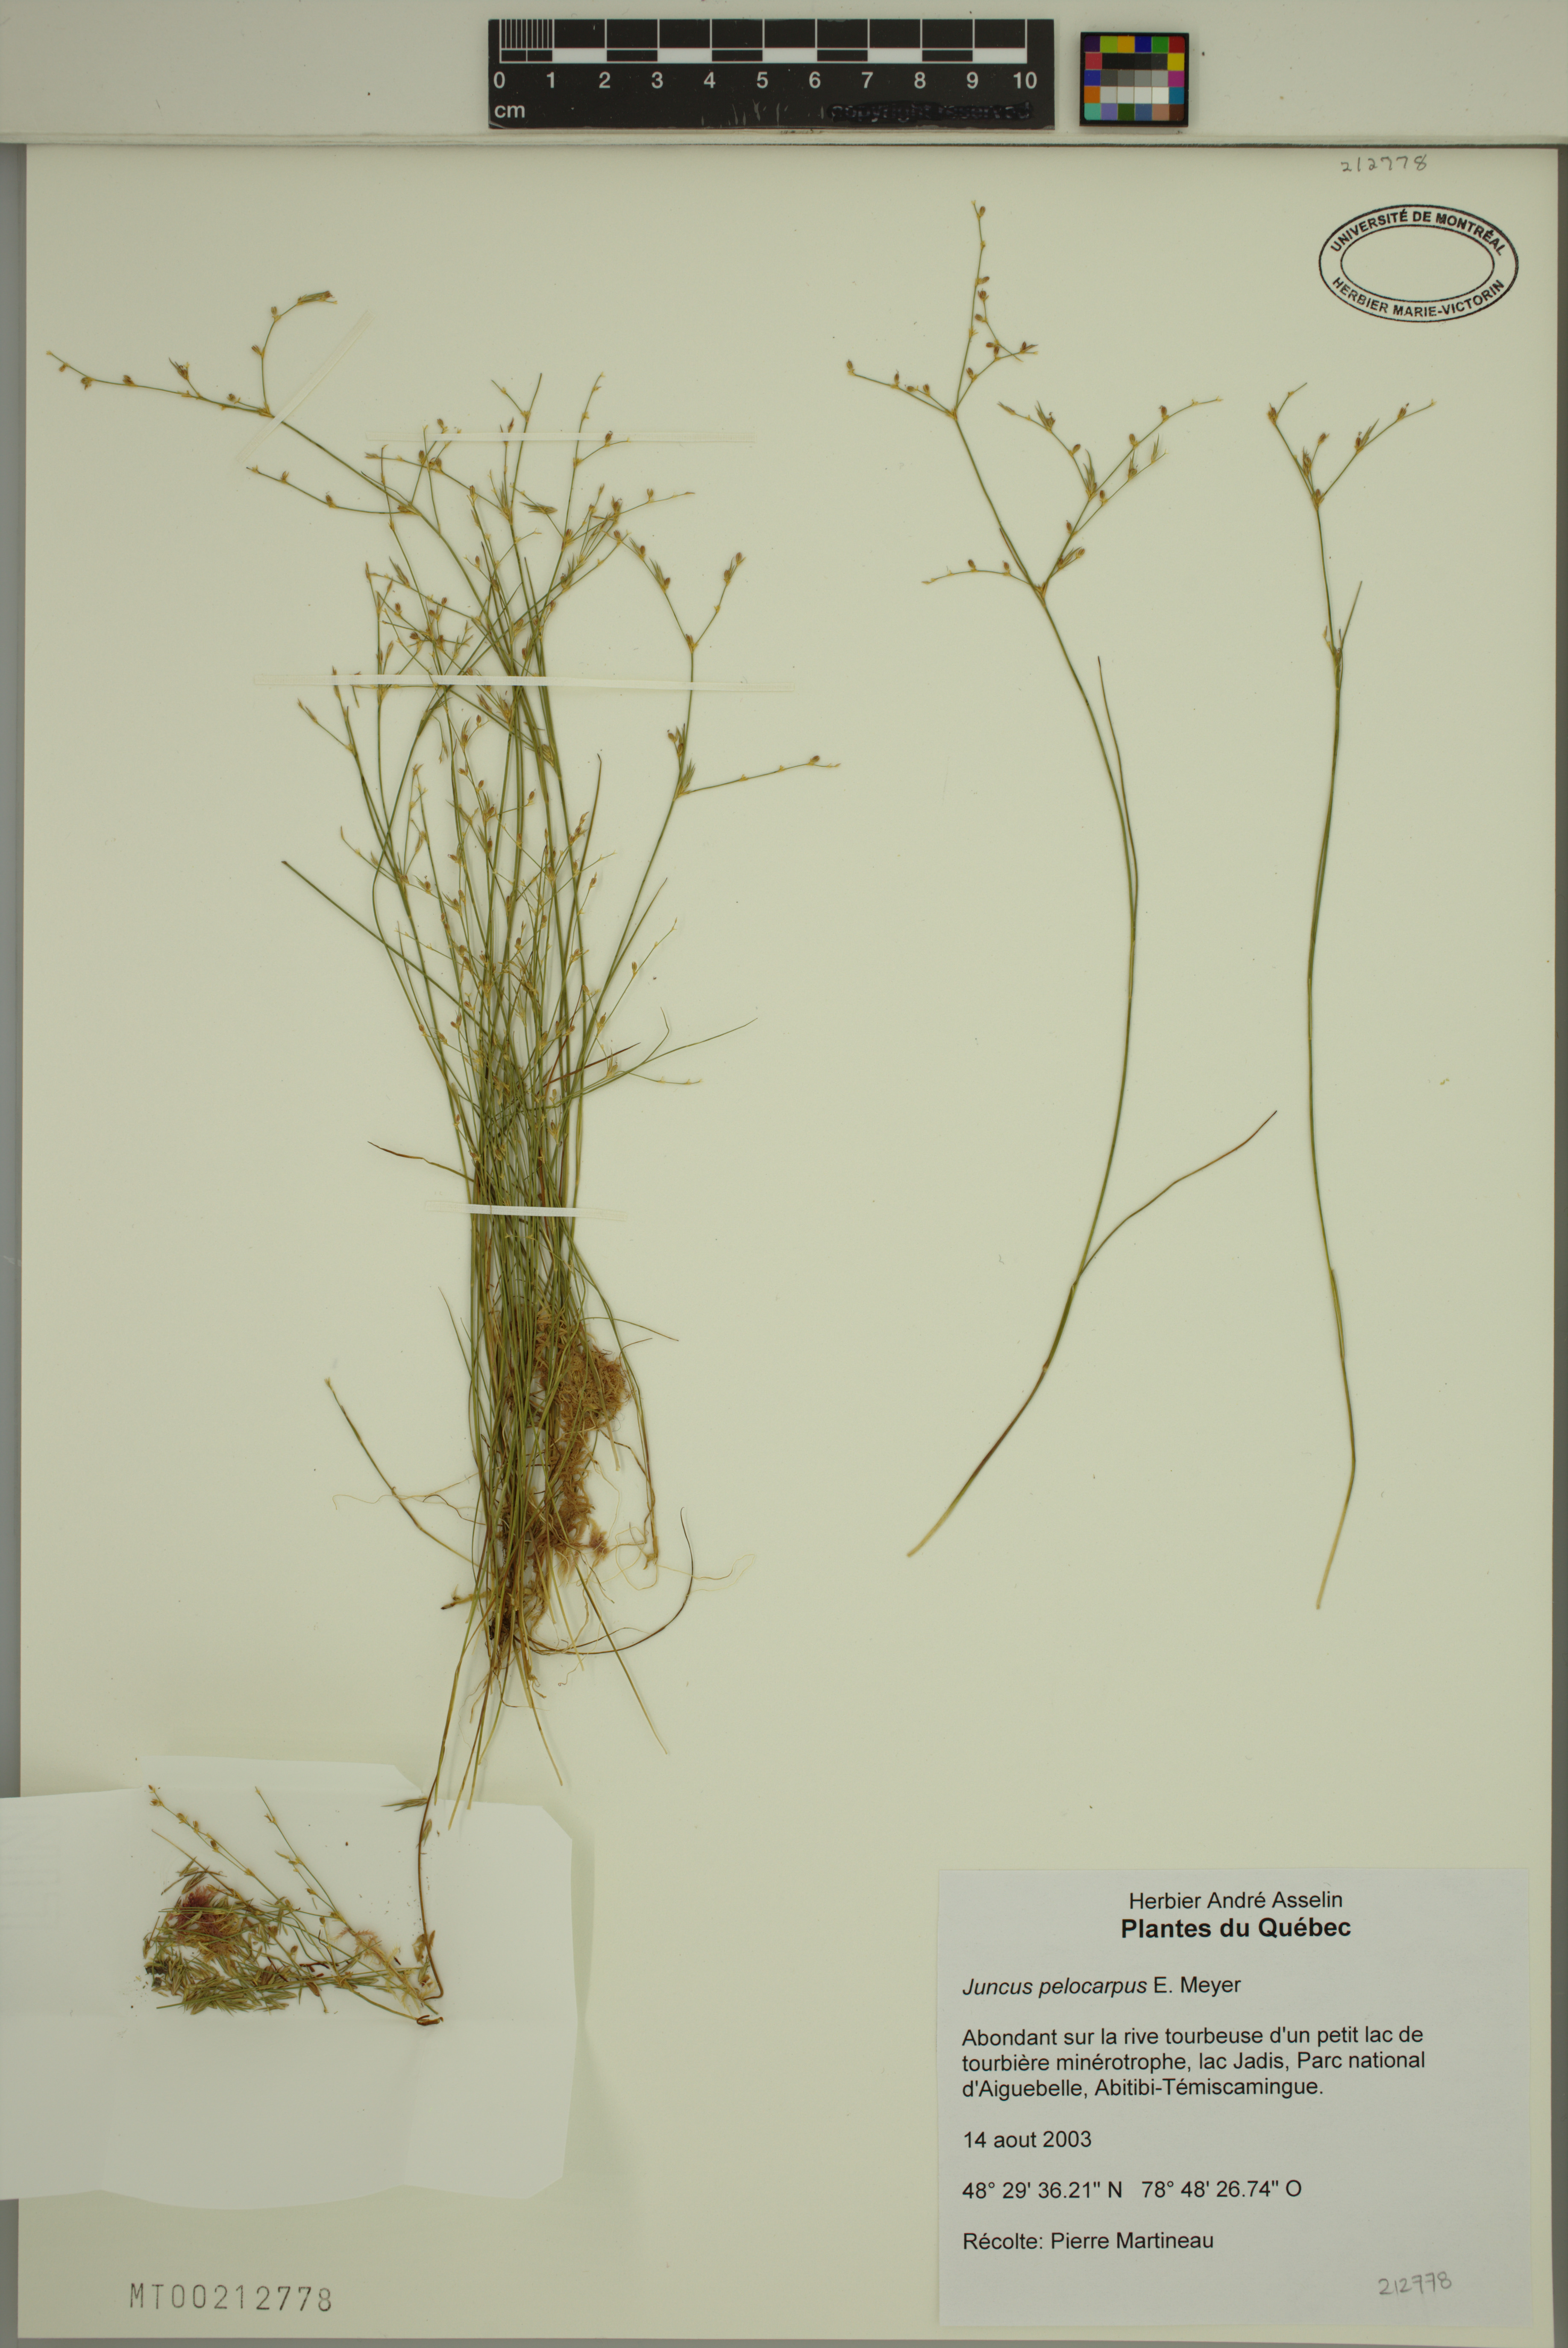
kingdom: Plantae
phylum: Tracheophyta
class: Liliopsida
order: Poales
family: Juncaceae
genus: Juncus
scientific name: Juncus pelocarpus
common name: Brown-fruited rush
